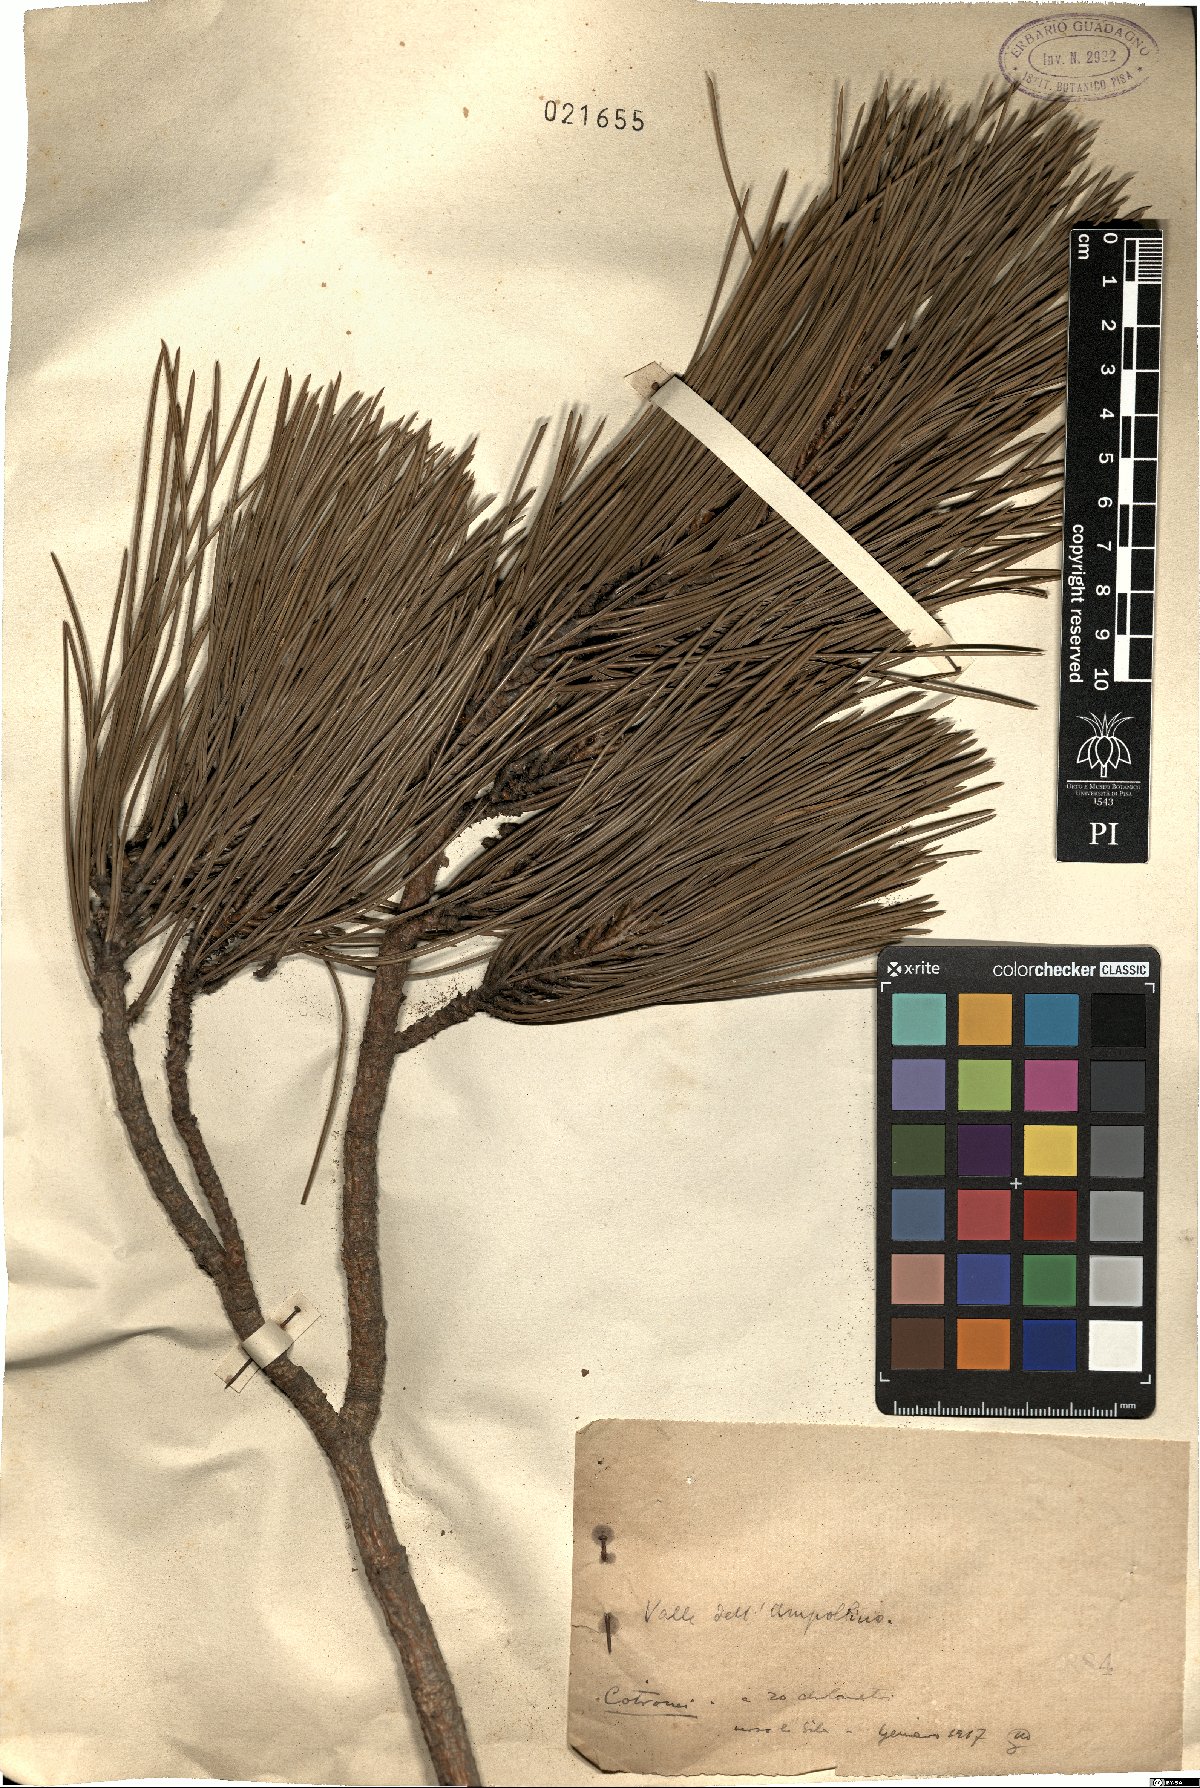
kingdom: Plantae
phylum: Tracheophyta
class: Pinopsida
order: Pinales
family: Pinaceae
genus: Pinus
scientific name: Pinus
